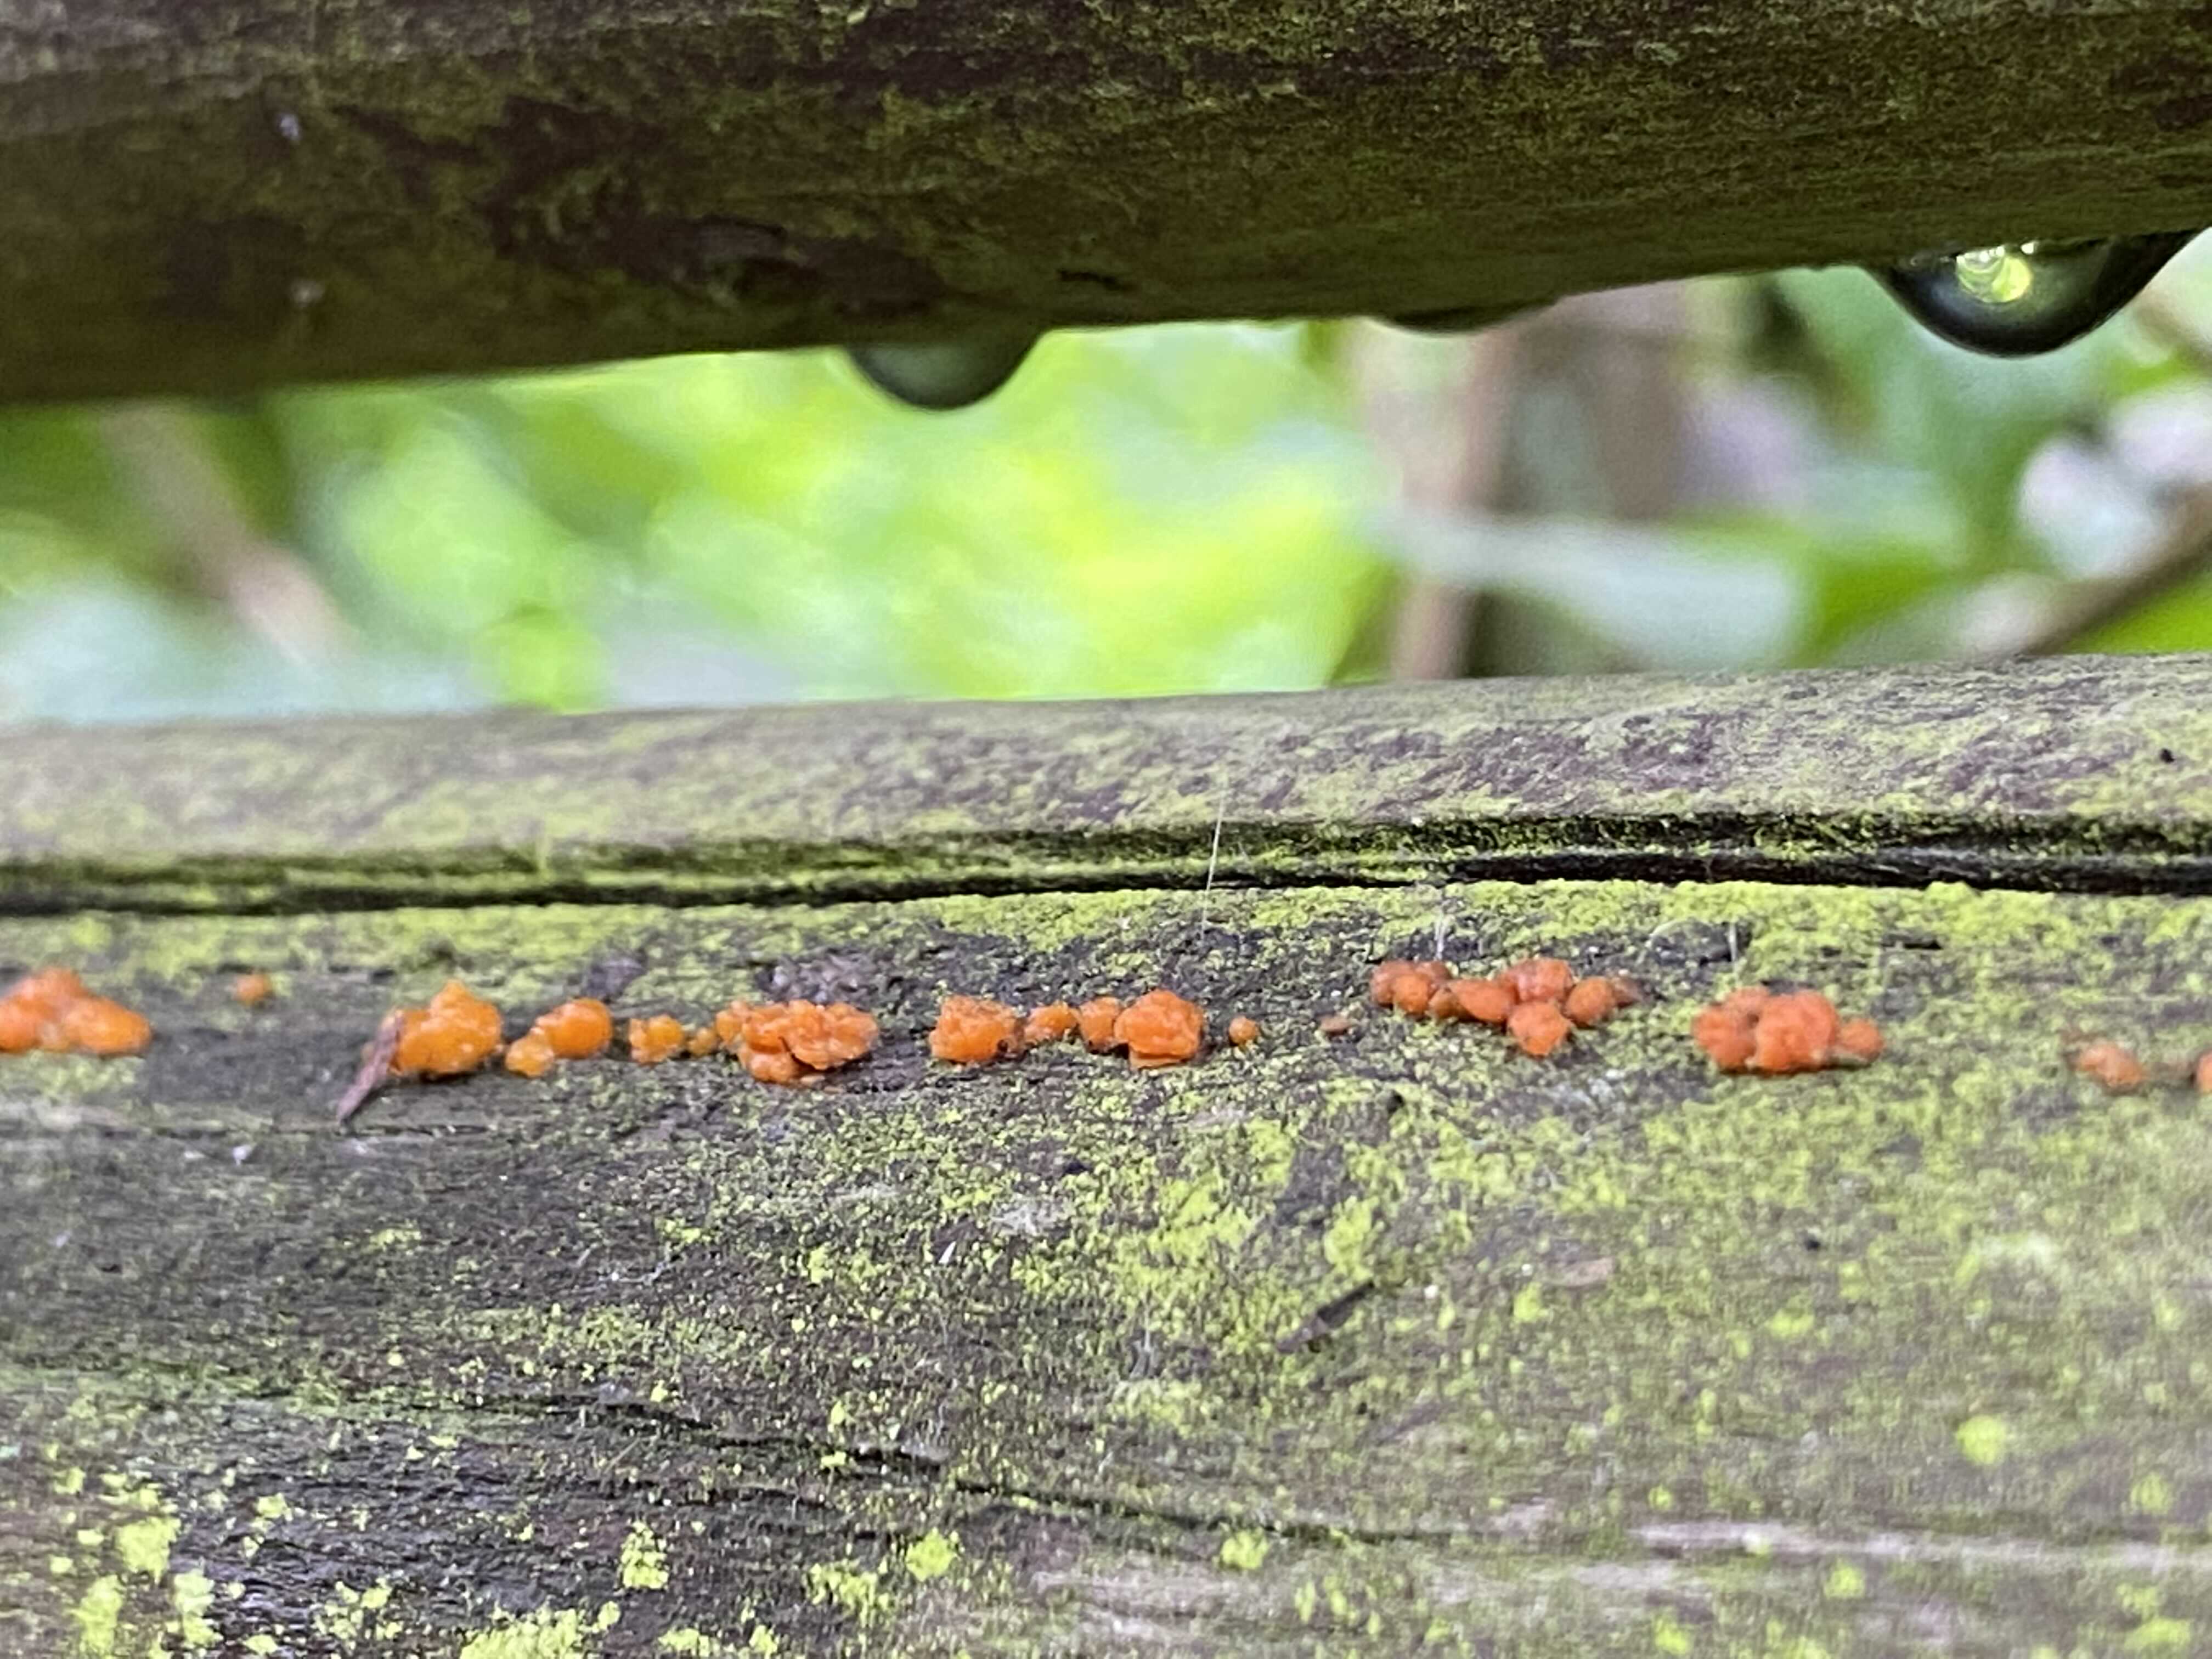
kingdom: Fungi
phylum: Basidiomycota
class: Dacrymycetes
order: Dacrymycetales
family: Dacrymycetaceae
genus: Dacrymyces
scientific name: Dacrymyces stillatus
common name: almindelig tåresvamp
